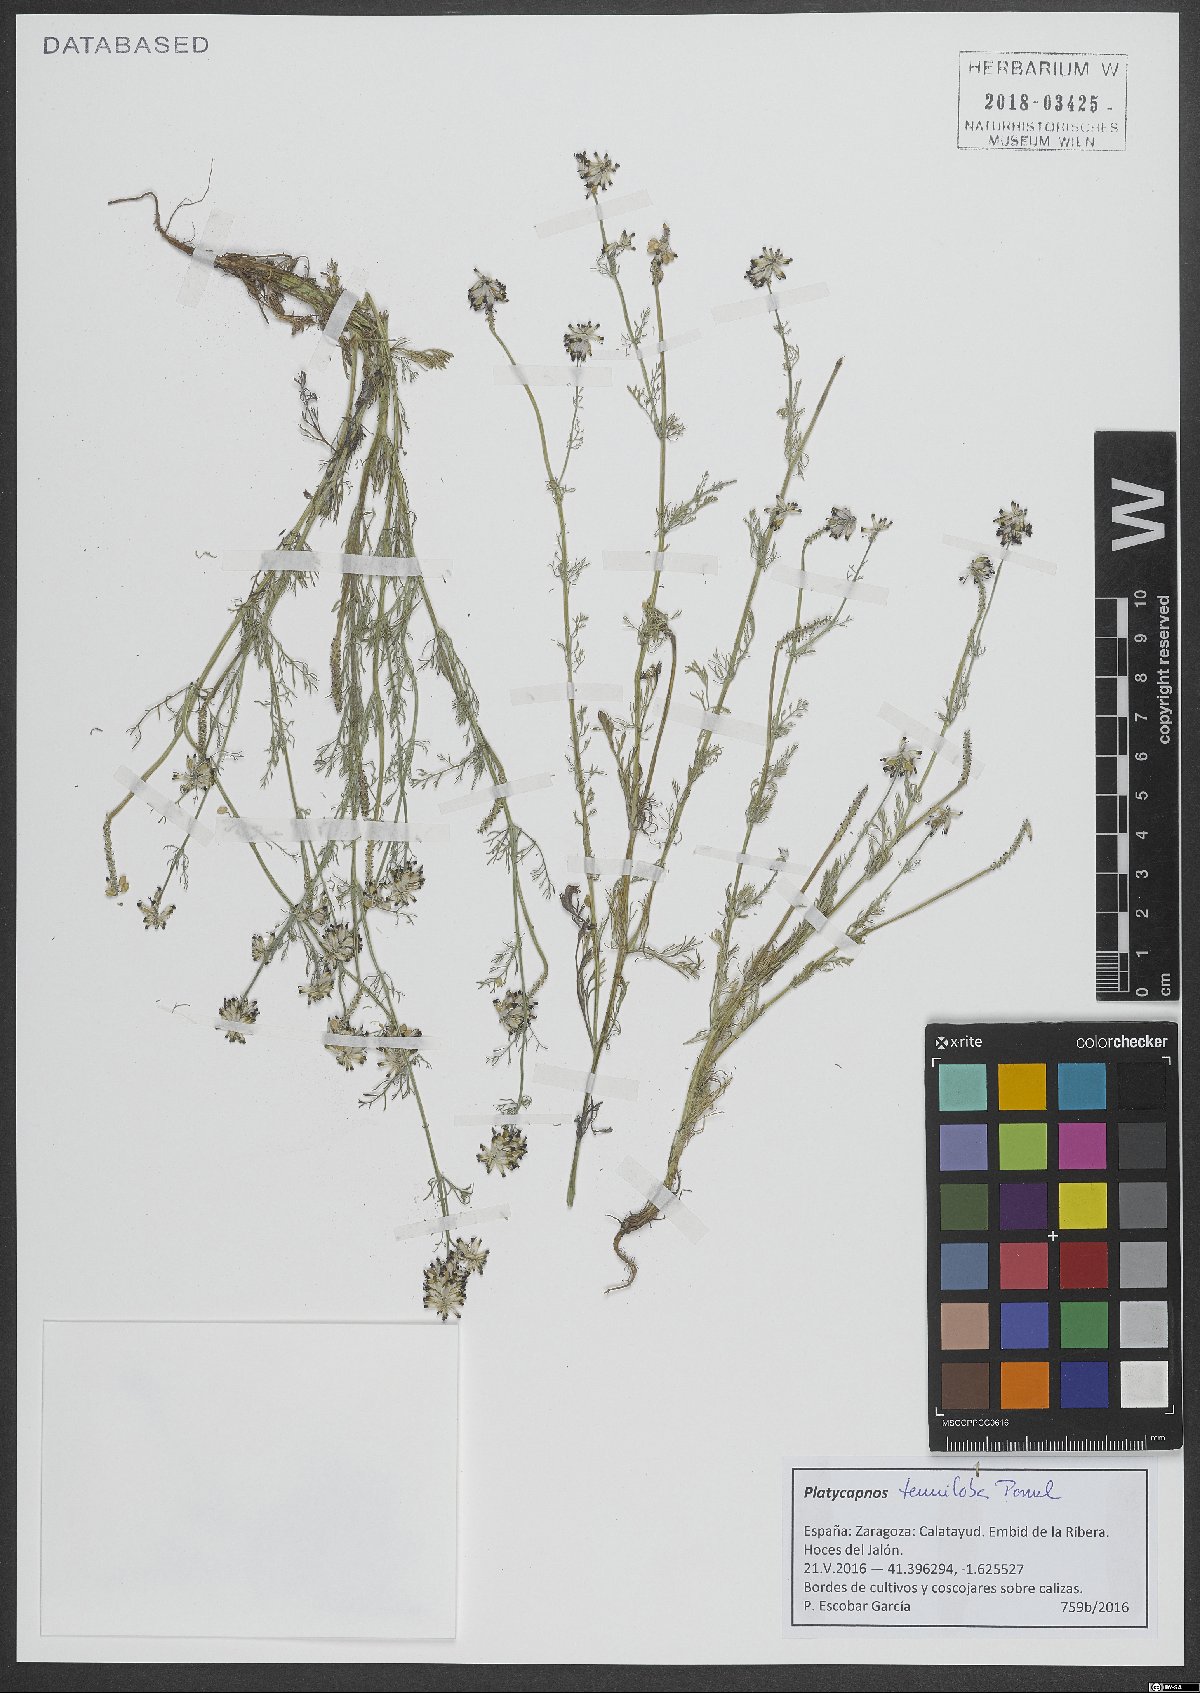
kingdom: Plantae
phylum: Tracheophyta
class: Magnoliopsida
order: Ranunculales
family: Papaveraceae
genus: Platycapnos
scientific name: Platycapnos tenuiloba
